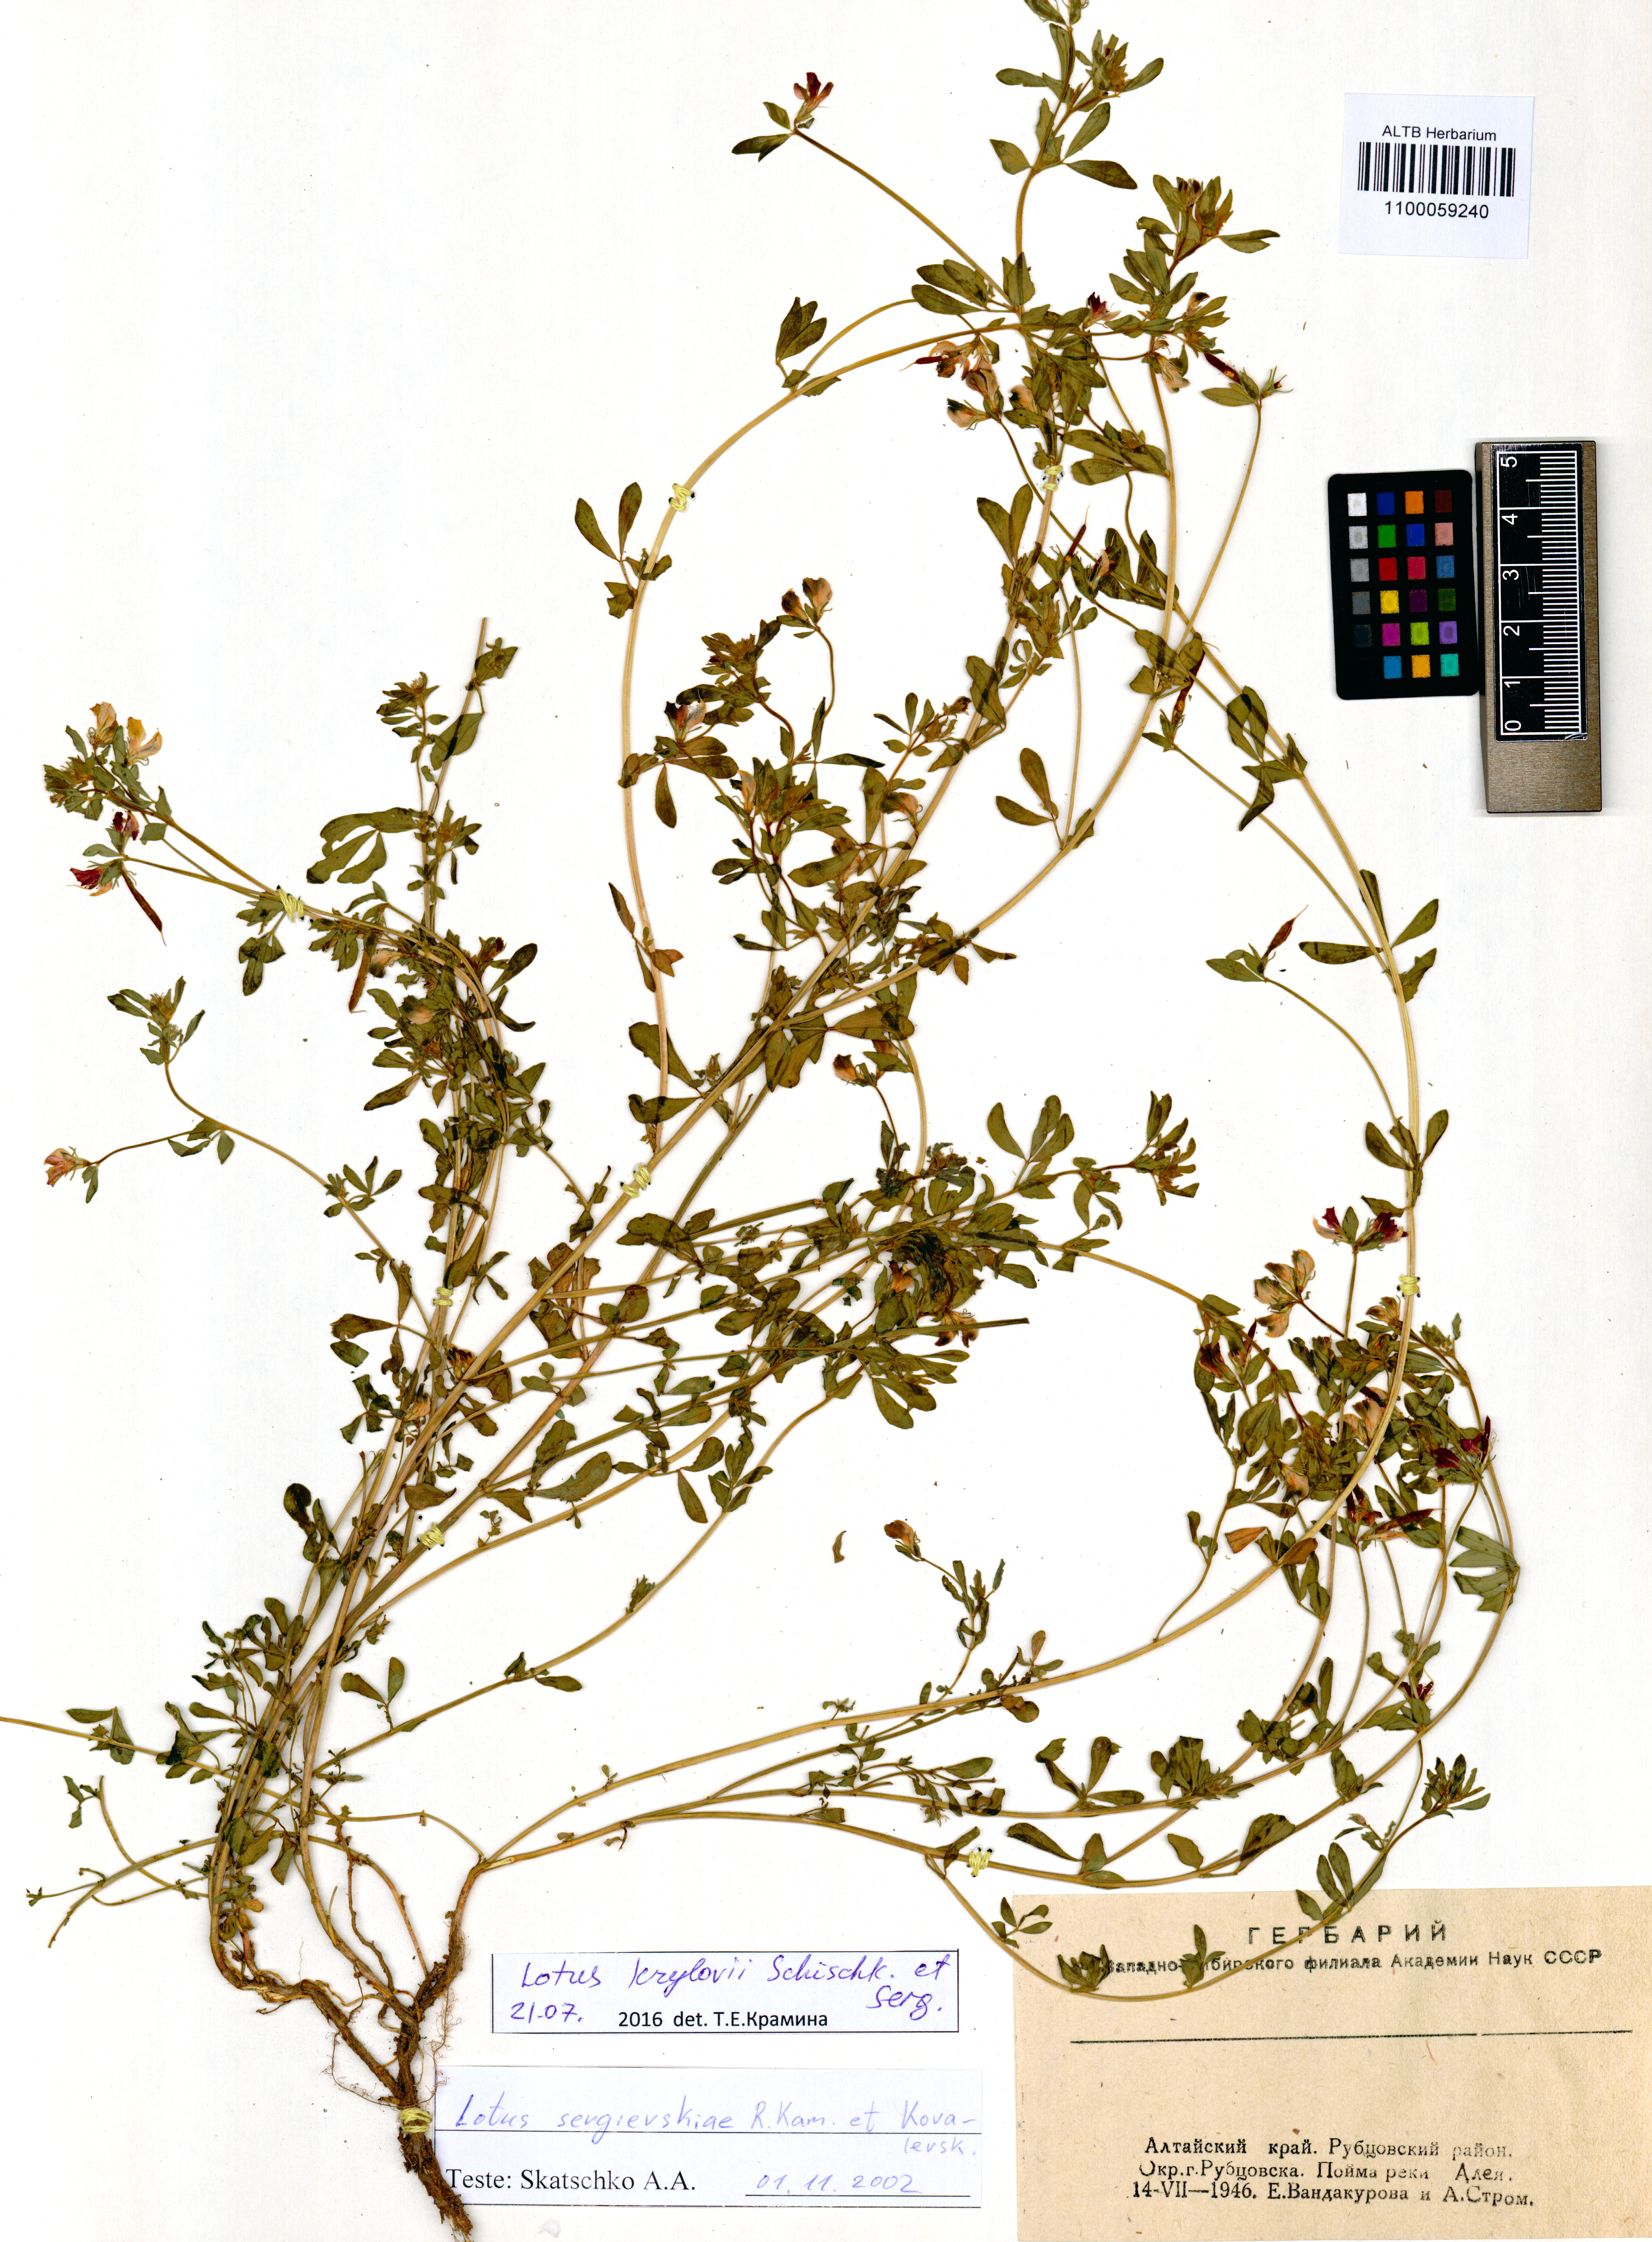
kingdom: Plantae
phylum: Tracheophyta
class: Magnoliopsida
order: Fabales
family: Fabaceae
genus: Lotus
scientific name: Lotus krylovii
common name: Krylov's bird's-foot trefoil
